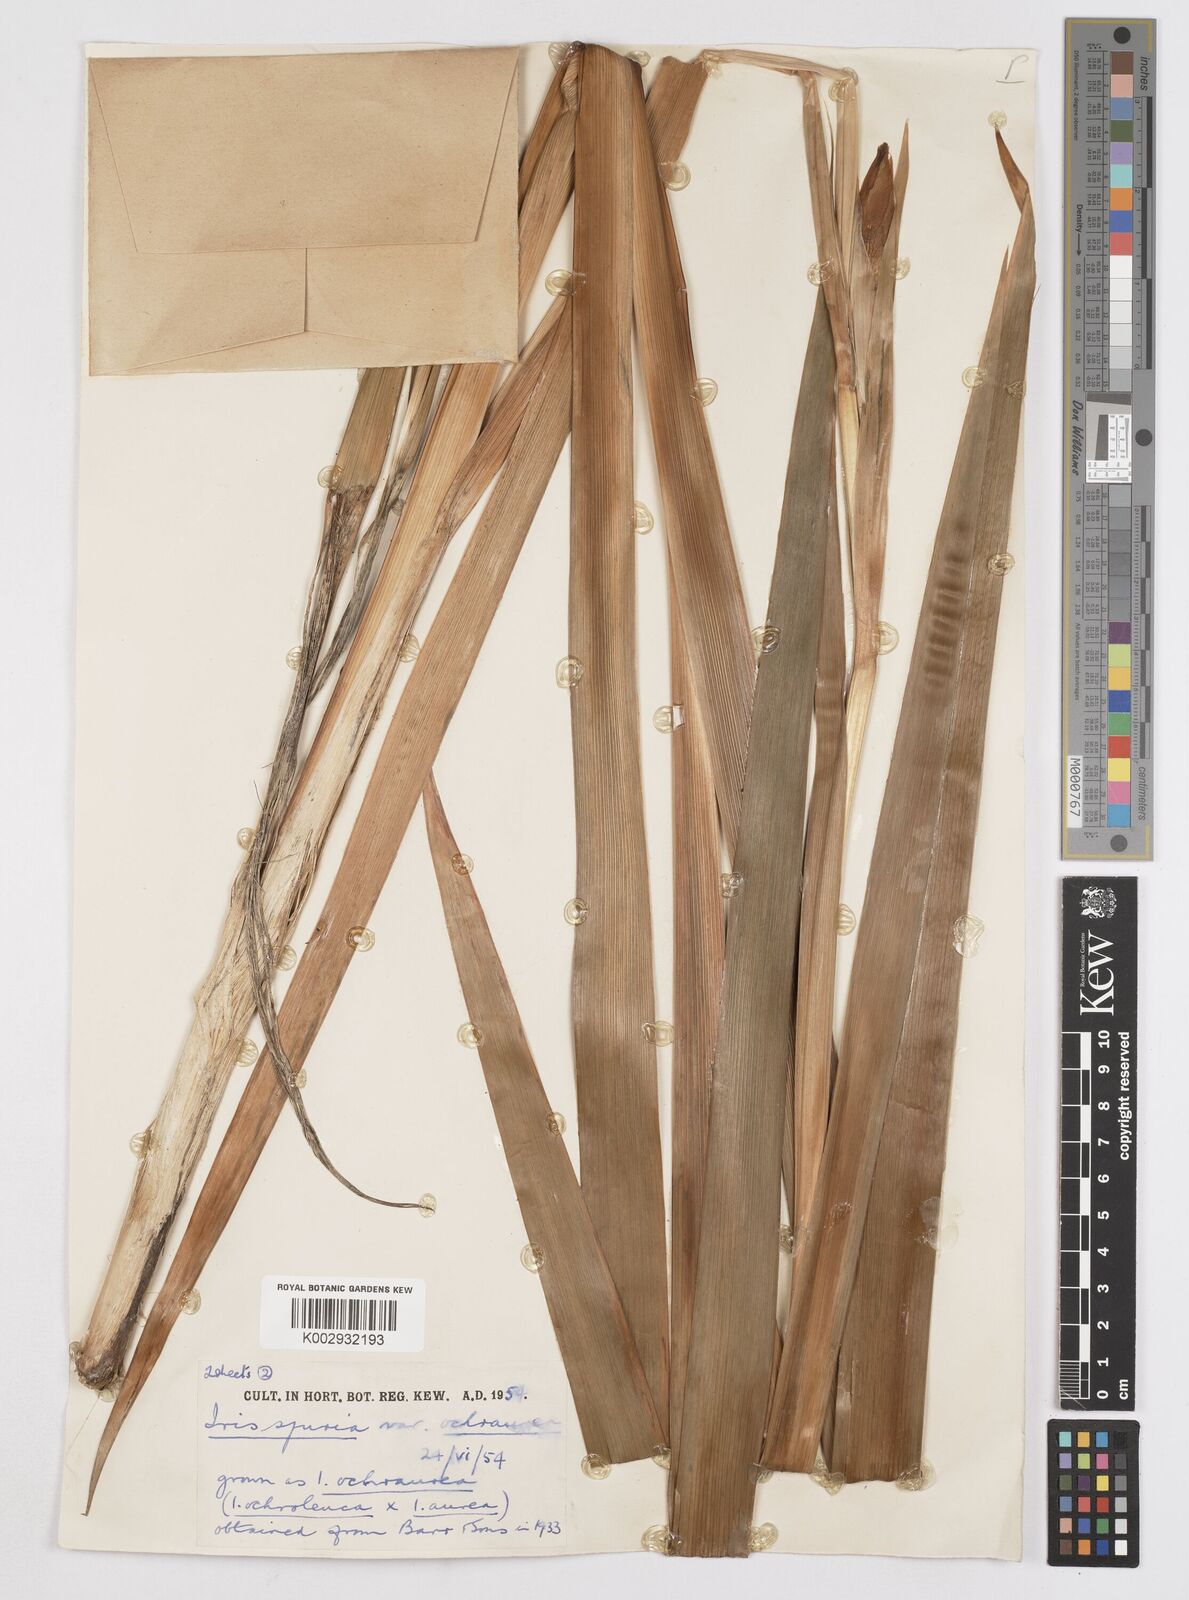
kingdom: Plantae
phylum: Tracheophyta
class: Liliopsida
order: Asparagales
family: Iridaceae
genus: Iris
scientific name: Iris
